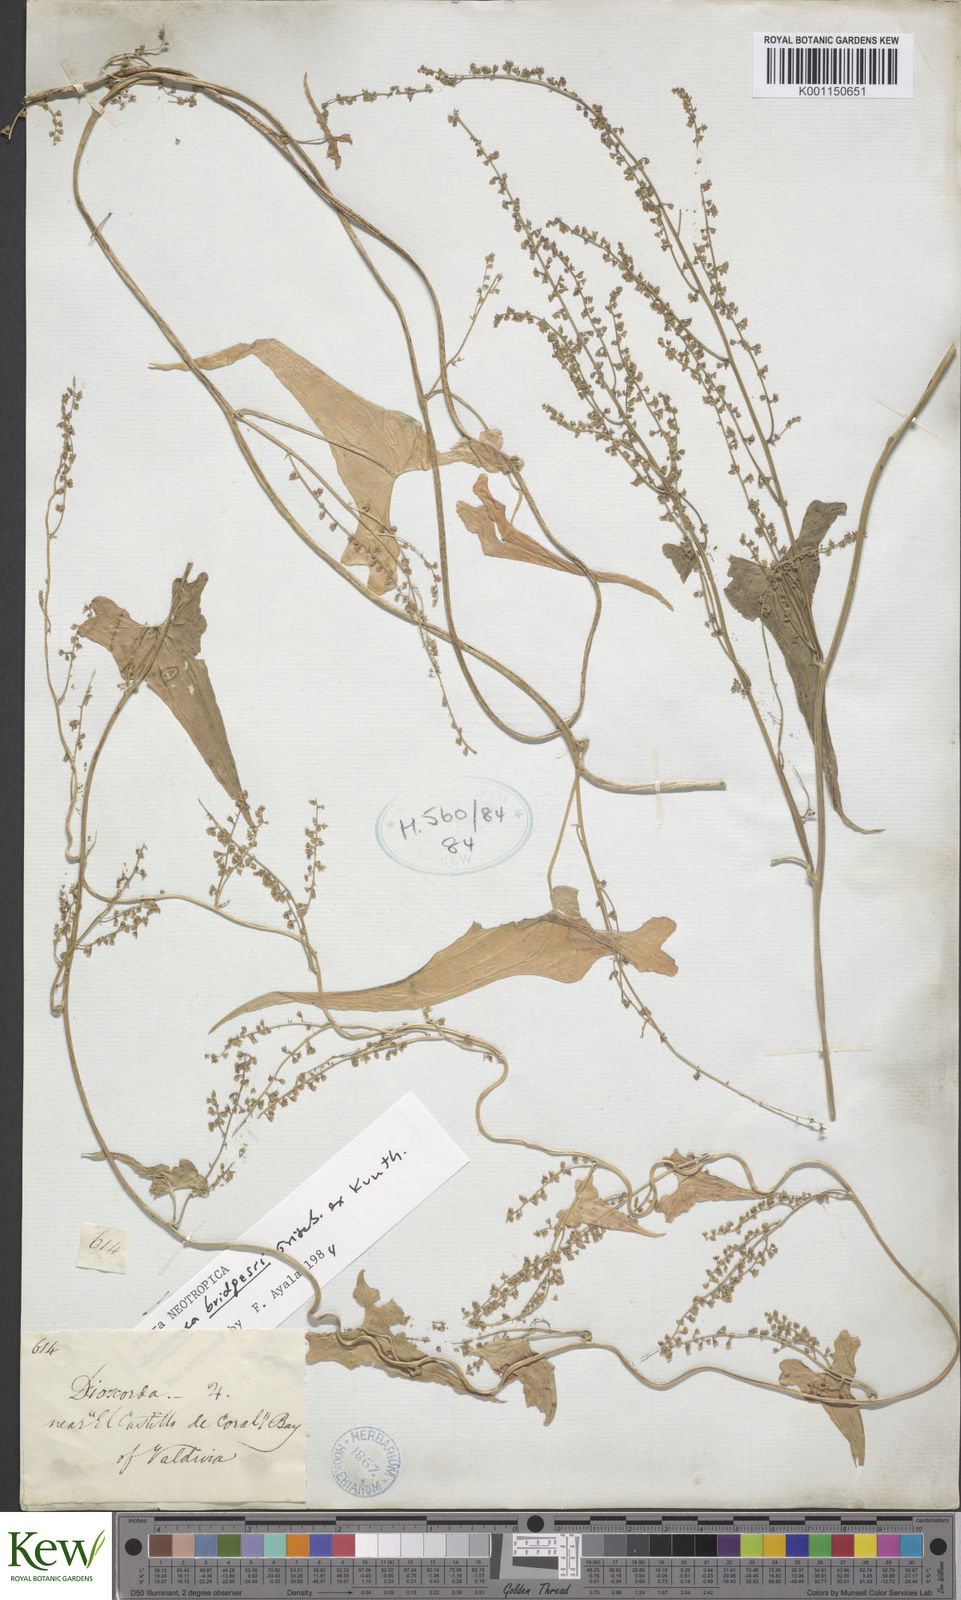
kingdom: Plantae
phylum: Tracheophyta
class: Liliopsida
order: Dioscoreales
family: Dioscoreaceae
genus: Dioscorea
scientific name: Dioscorea bridgesii
